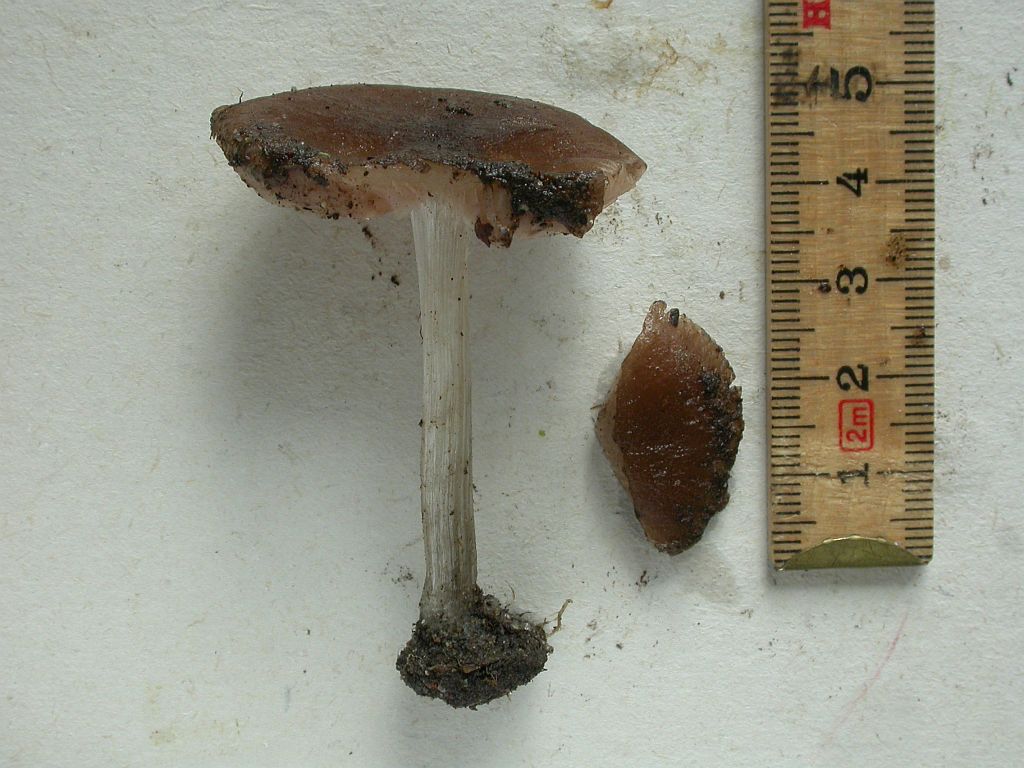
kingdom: Fungi
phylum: Basidiomycota
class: Agaricomycetes
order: Agaricales
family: Pluteaceae
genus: Pluteus
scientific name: Pluteus
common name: pudret skærmhat
